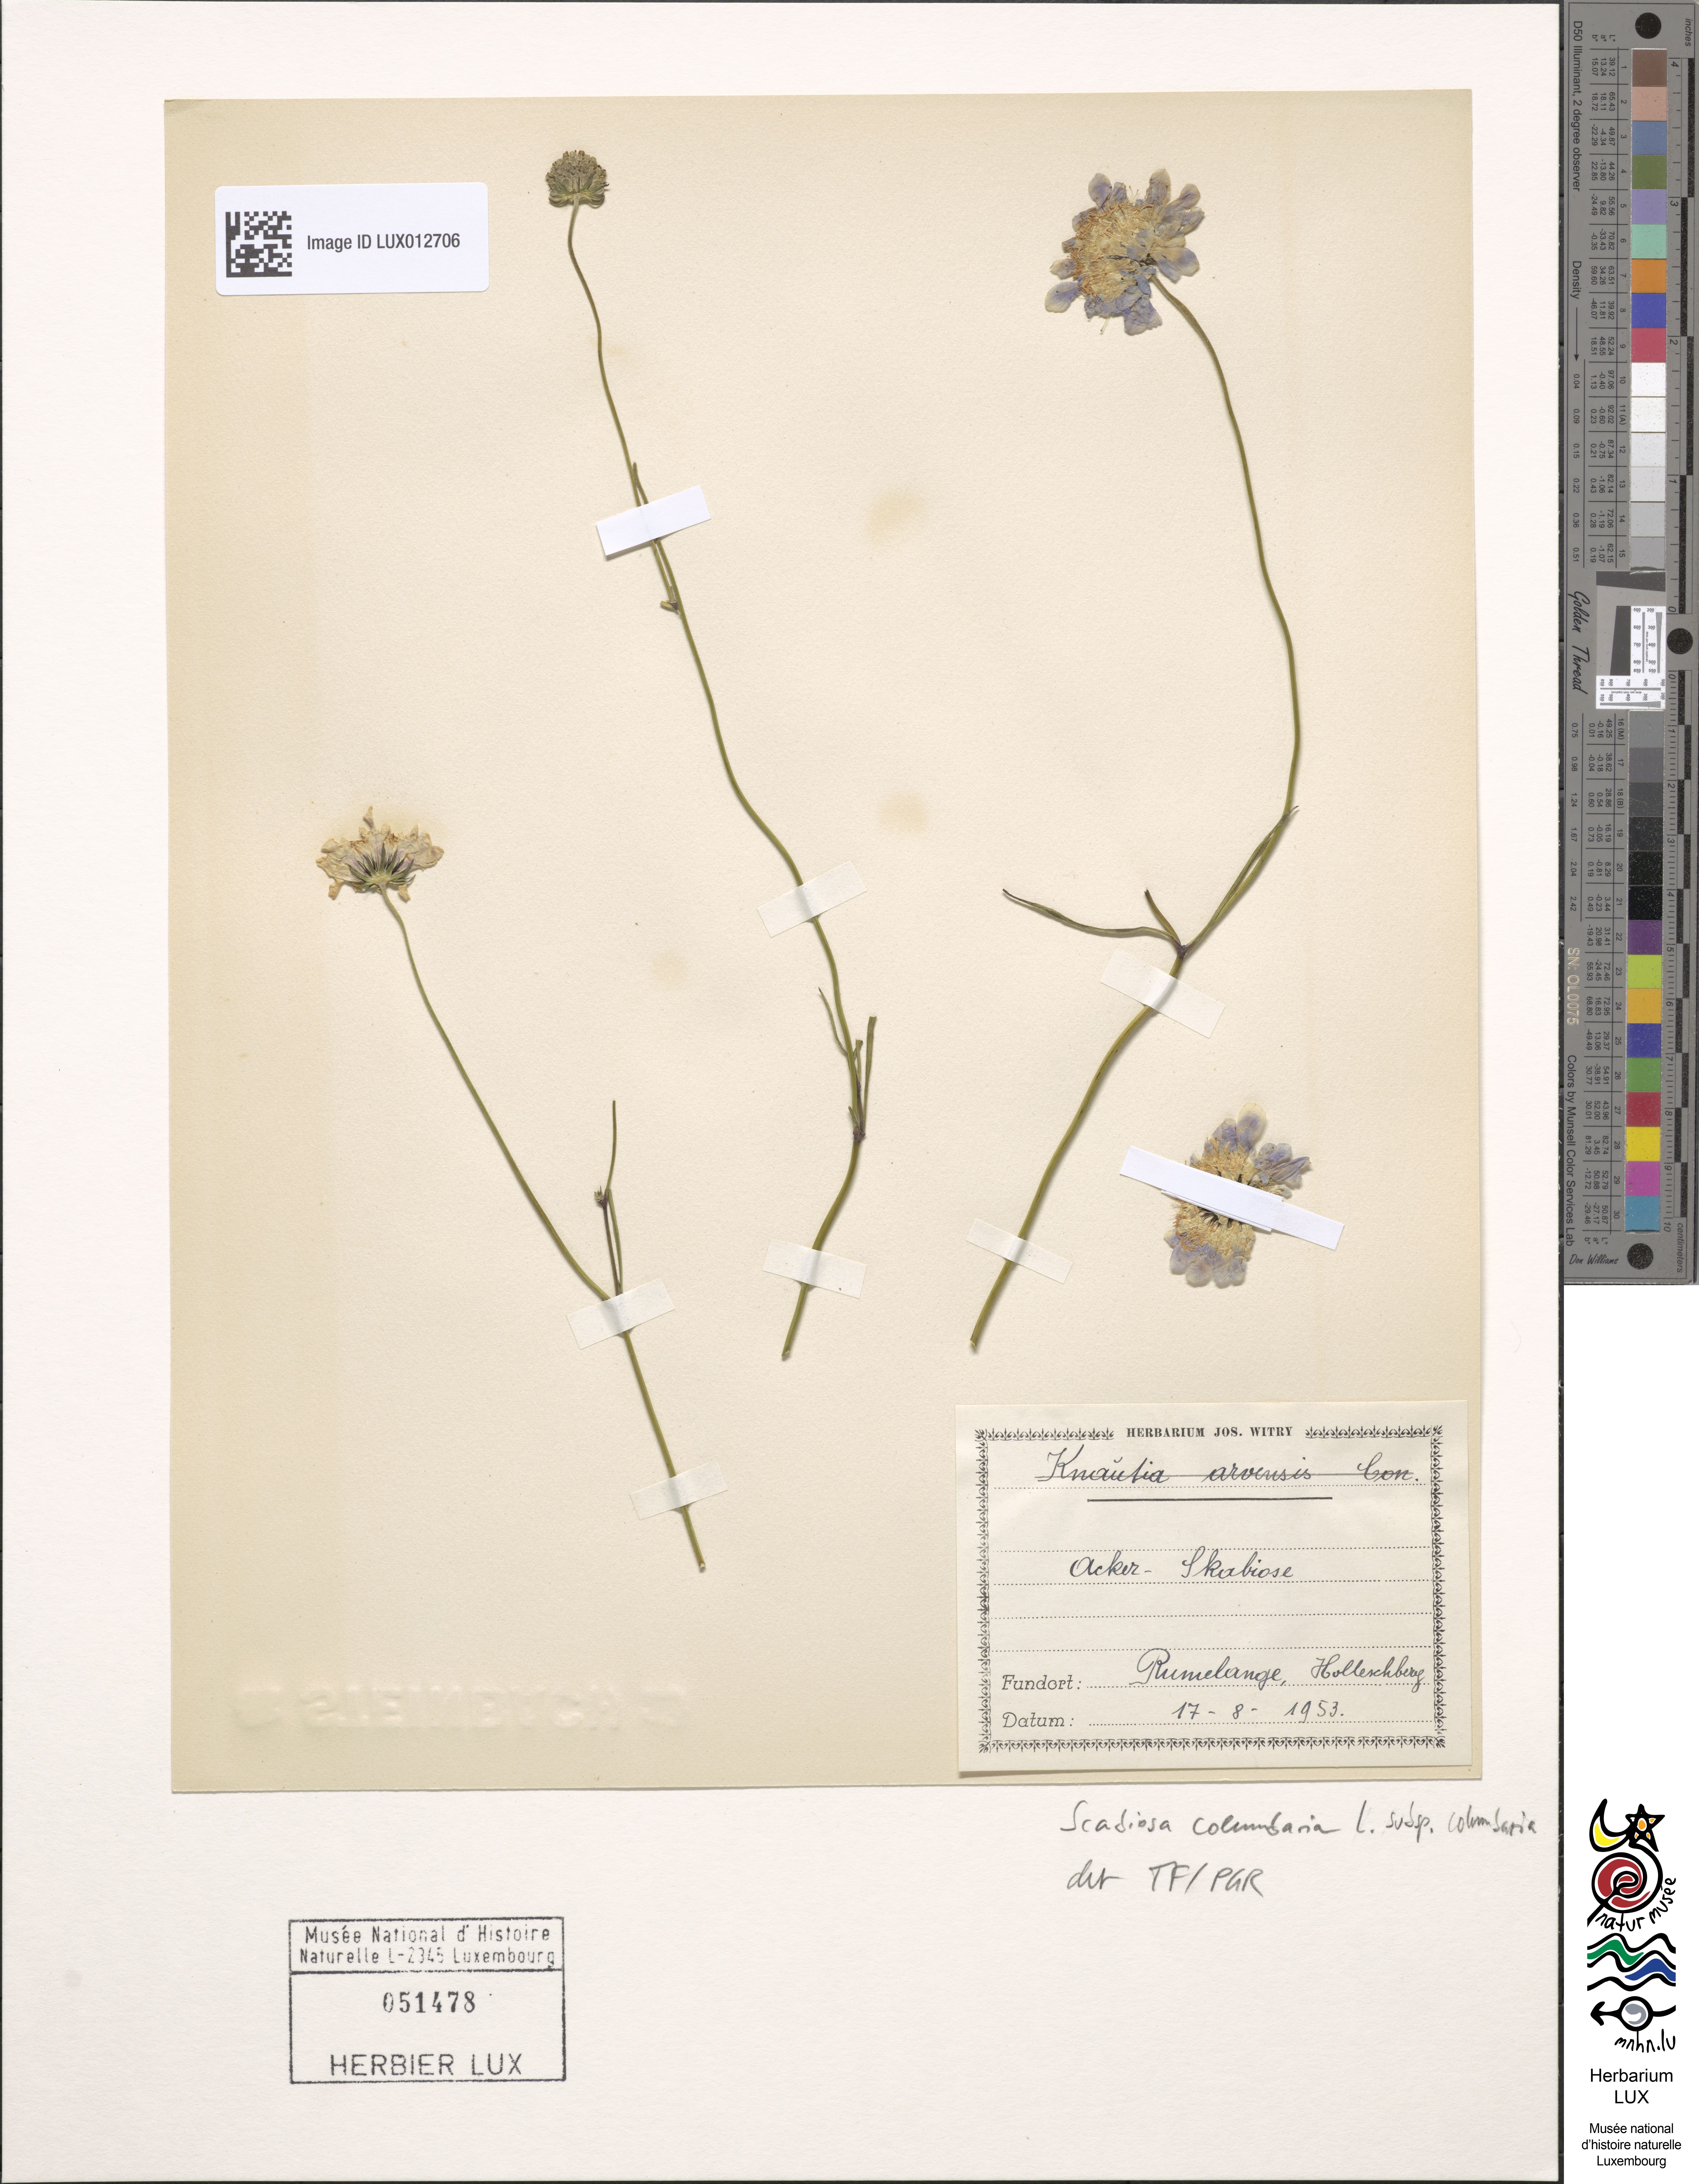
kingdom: Plantae
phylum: Tracheophyta
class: Magnoliopsida
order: Dipsacales
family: Caprifoliaceae
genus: Scabiosa
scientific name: Scabiosa columbaria
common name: Small scabious
